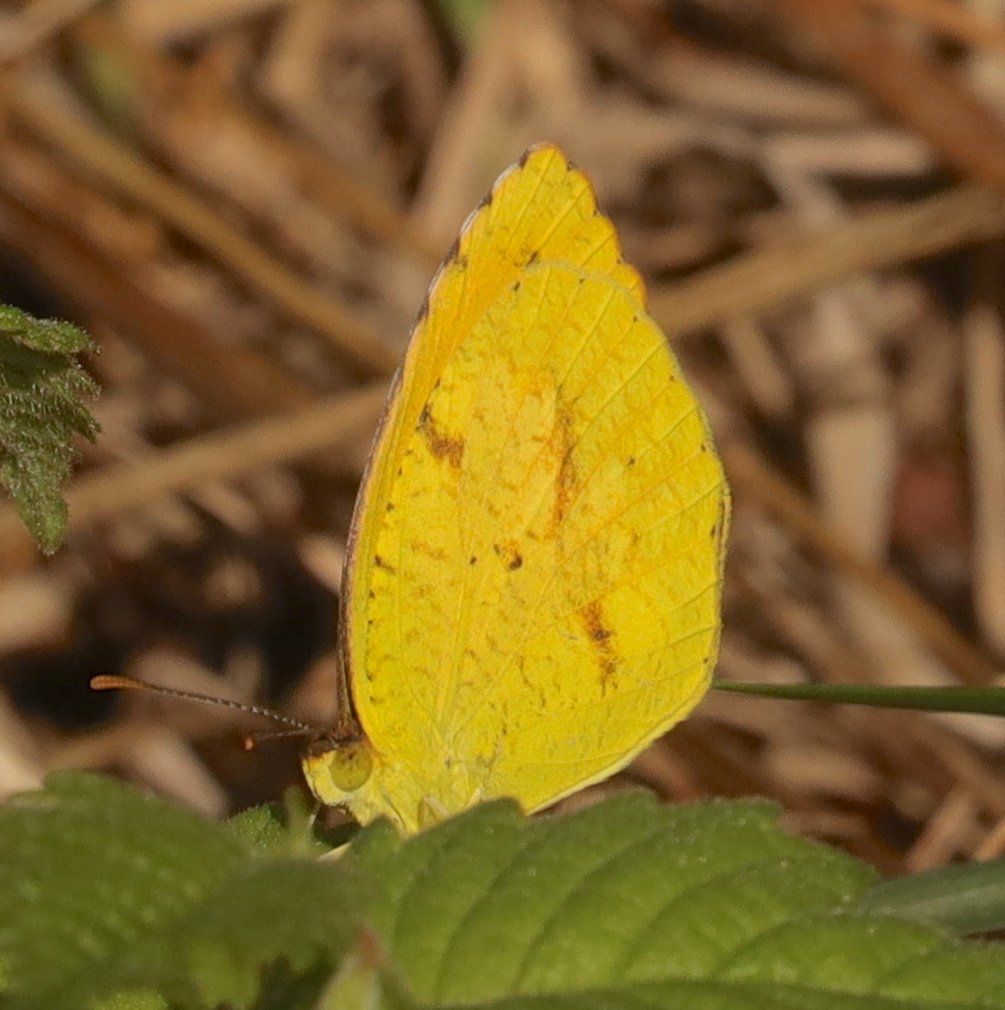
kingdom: Animalia
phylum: Arthropoda
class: Insecta
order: Lepidoptera
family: Pieridae
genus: Abaeis
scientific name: Abaeis nicippe
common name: Sleepy Orange
